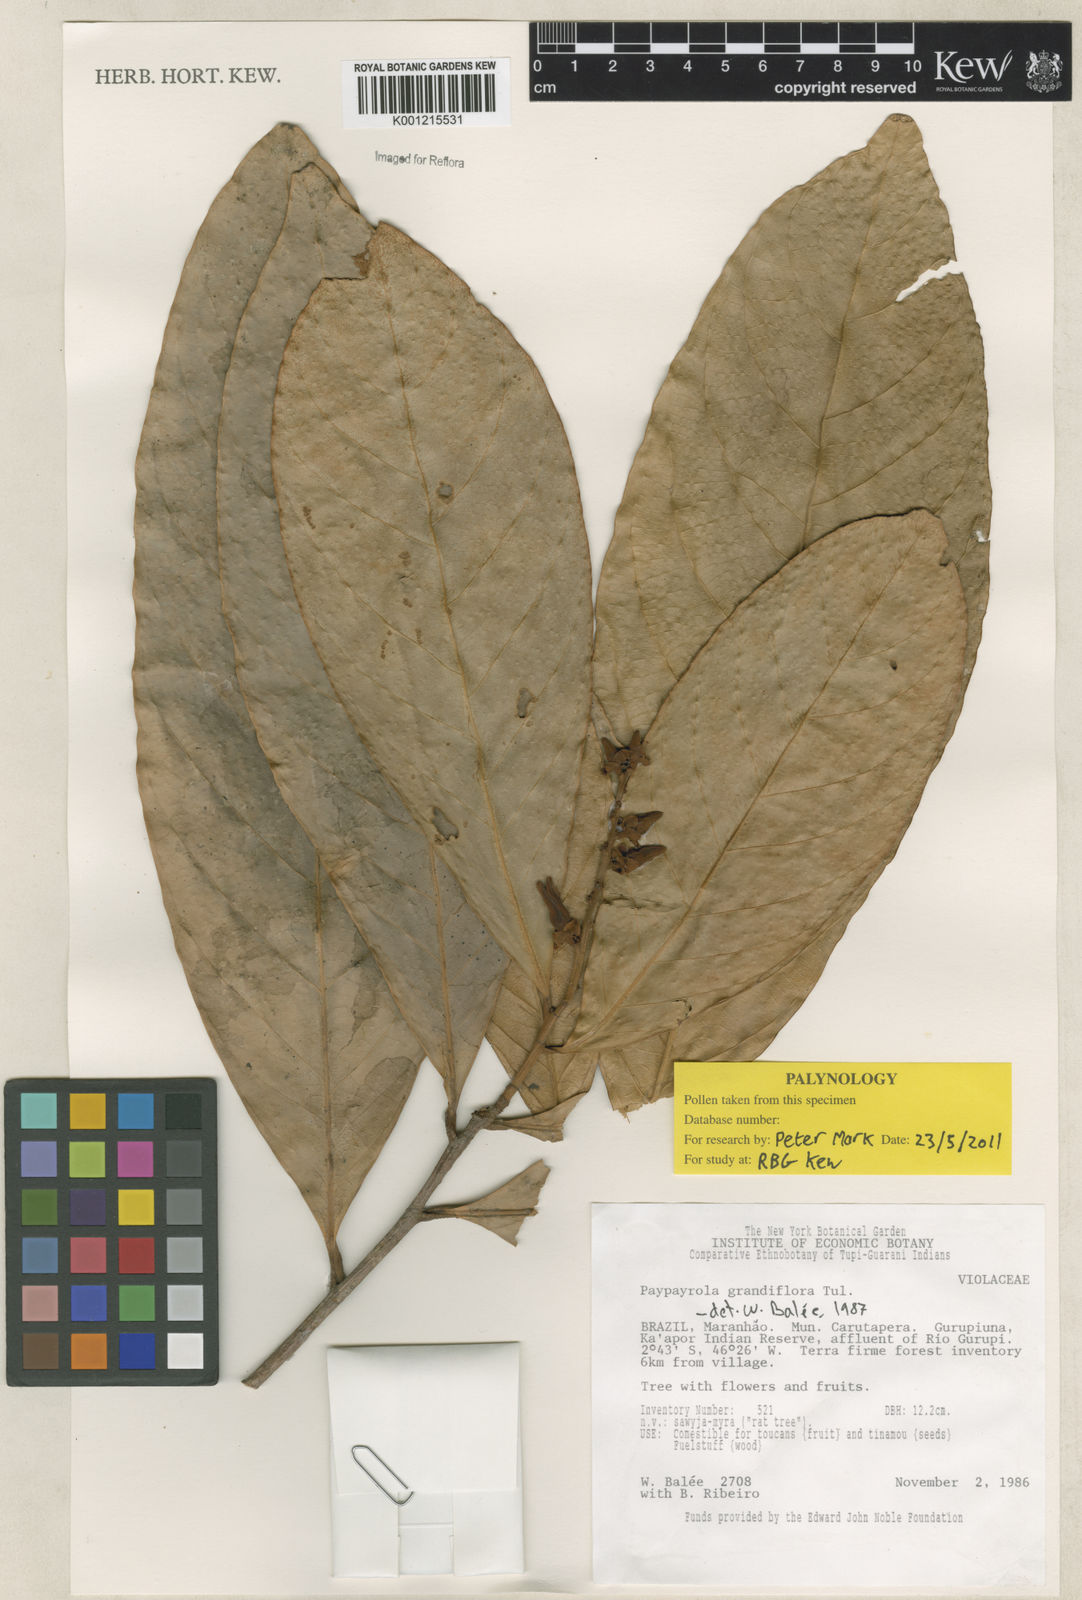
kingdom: Plantae
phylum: Tracheophyta
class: Magnoliopsida
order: Malpighiales
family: Violaceae
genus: Paypayrola
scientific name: Paypayrola grandiflora
